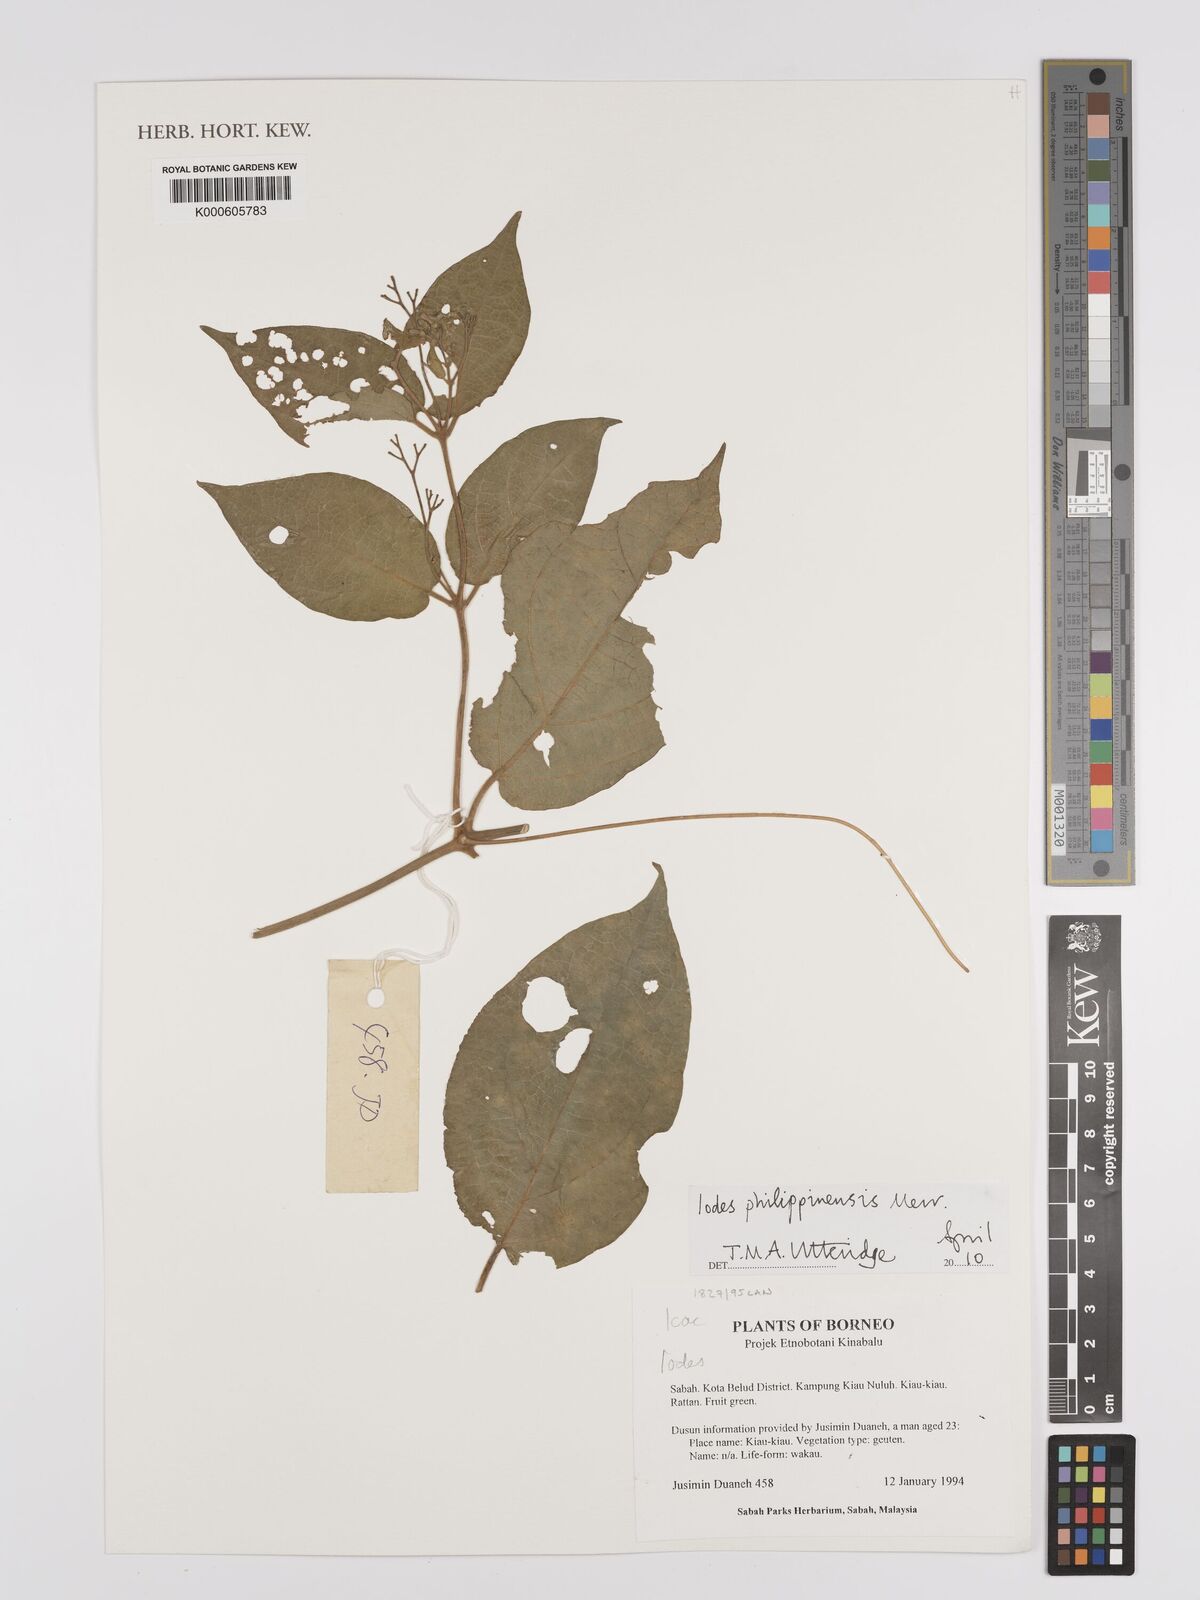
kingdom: Plantae
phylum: Tracheophyta
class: Magnoliopsida
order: Icacinales
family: Icacinaceae
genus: Iodes
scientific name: Iodes philippinensis
